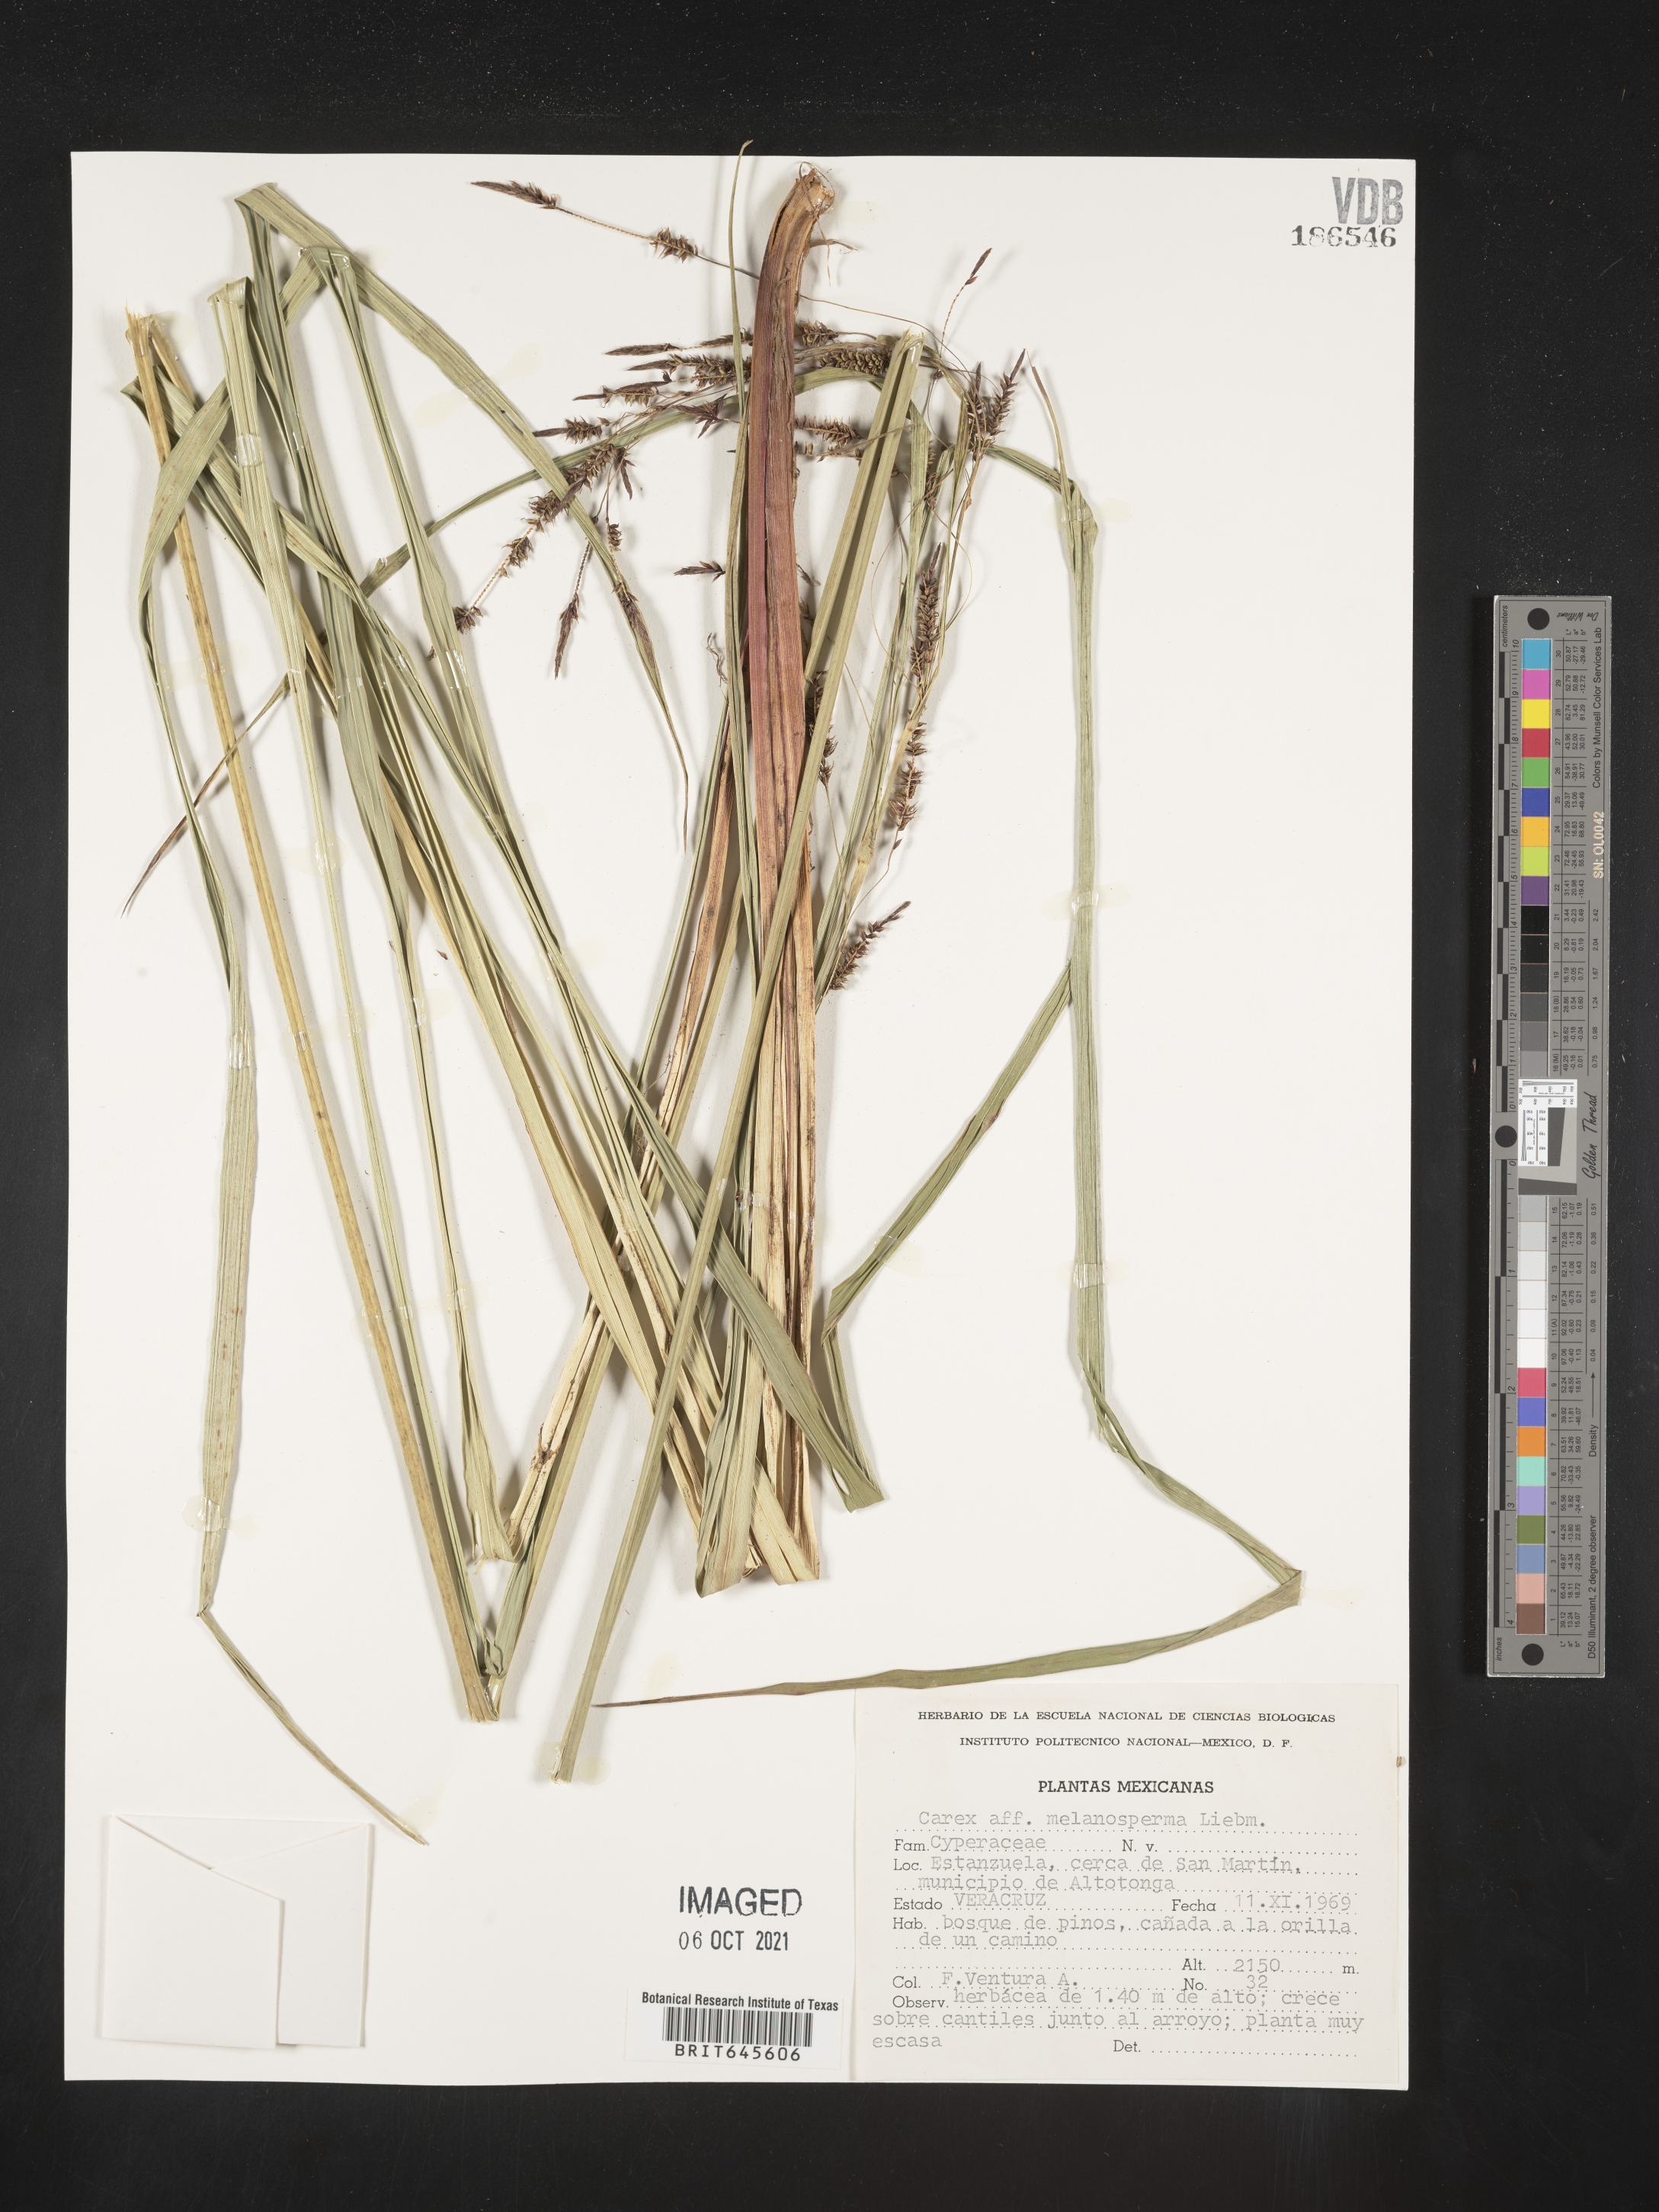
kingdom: Plantae
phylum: Tracheophyta
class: Liliopsida
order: Poales
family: Cyperaceae
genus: Carex
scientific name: Carex
